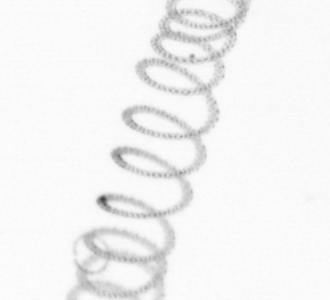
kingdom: Chromista
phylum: Ochrophyta
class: Bacillariophyceae
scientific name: Bacillariophyceae
